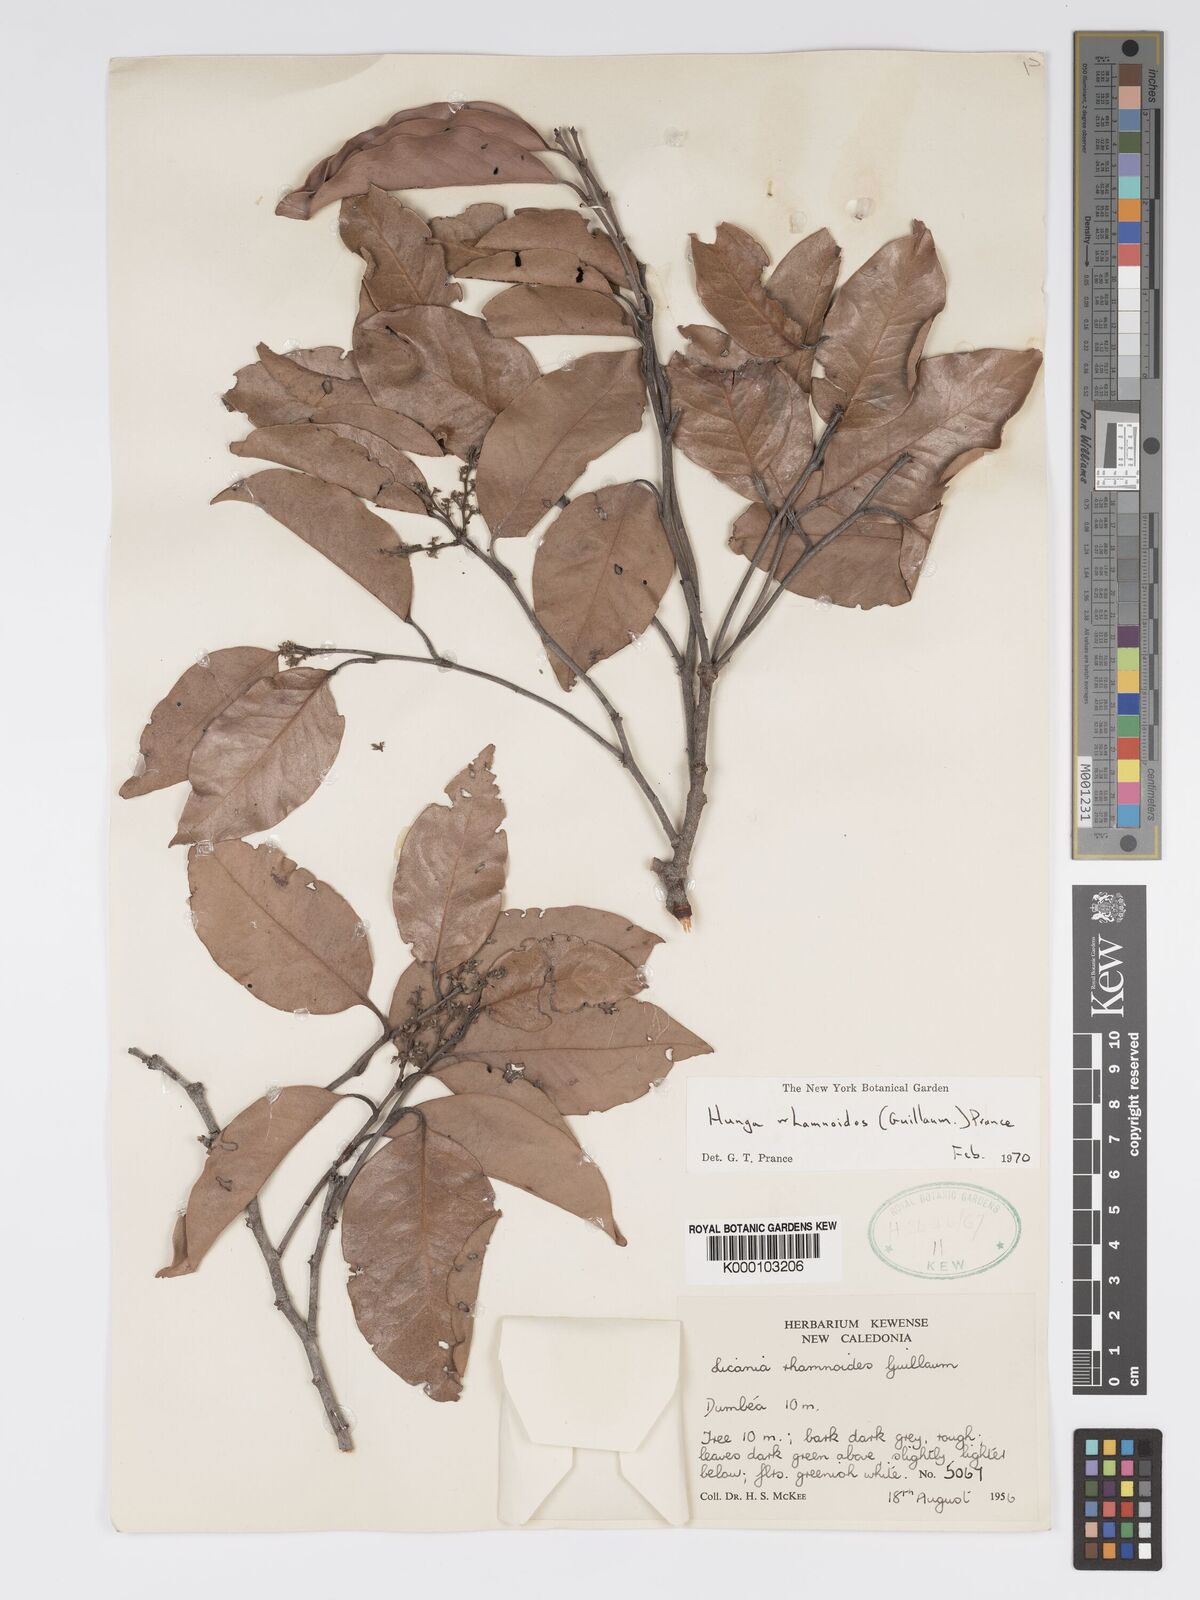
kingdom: Plantae
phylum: Tracheophyta
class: Magnoliopsida
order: Malpighiales
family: Chrysobalanaceae
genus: Hunga
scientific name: Hunga rhamnoides
